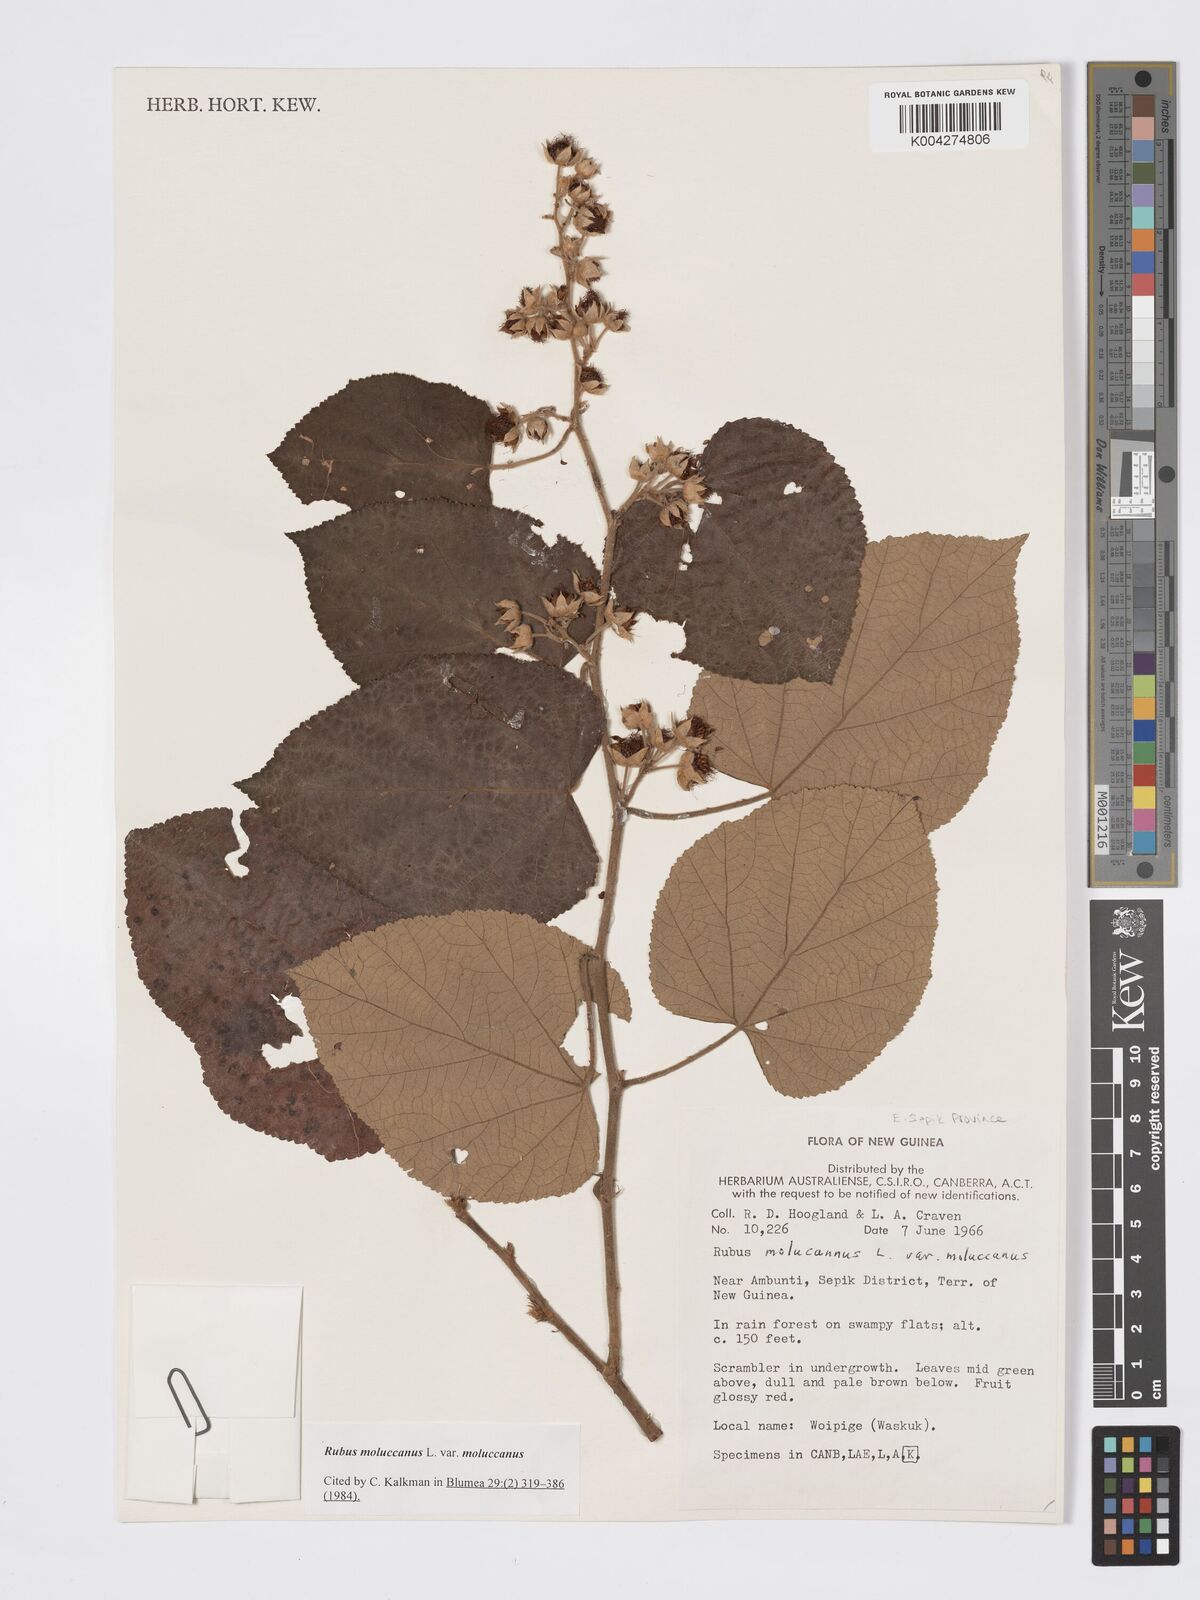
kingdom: Plantae
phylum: Tracheophyta
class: Magnoliopsida
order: Rosales
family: Rosaceae
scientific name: Rosaceae
